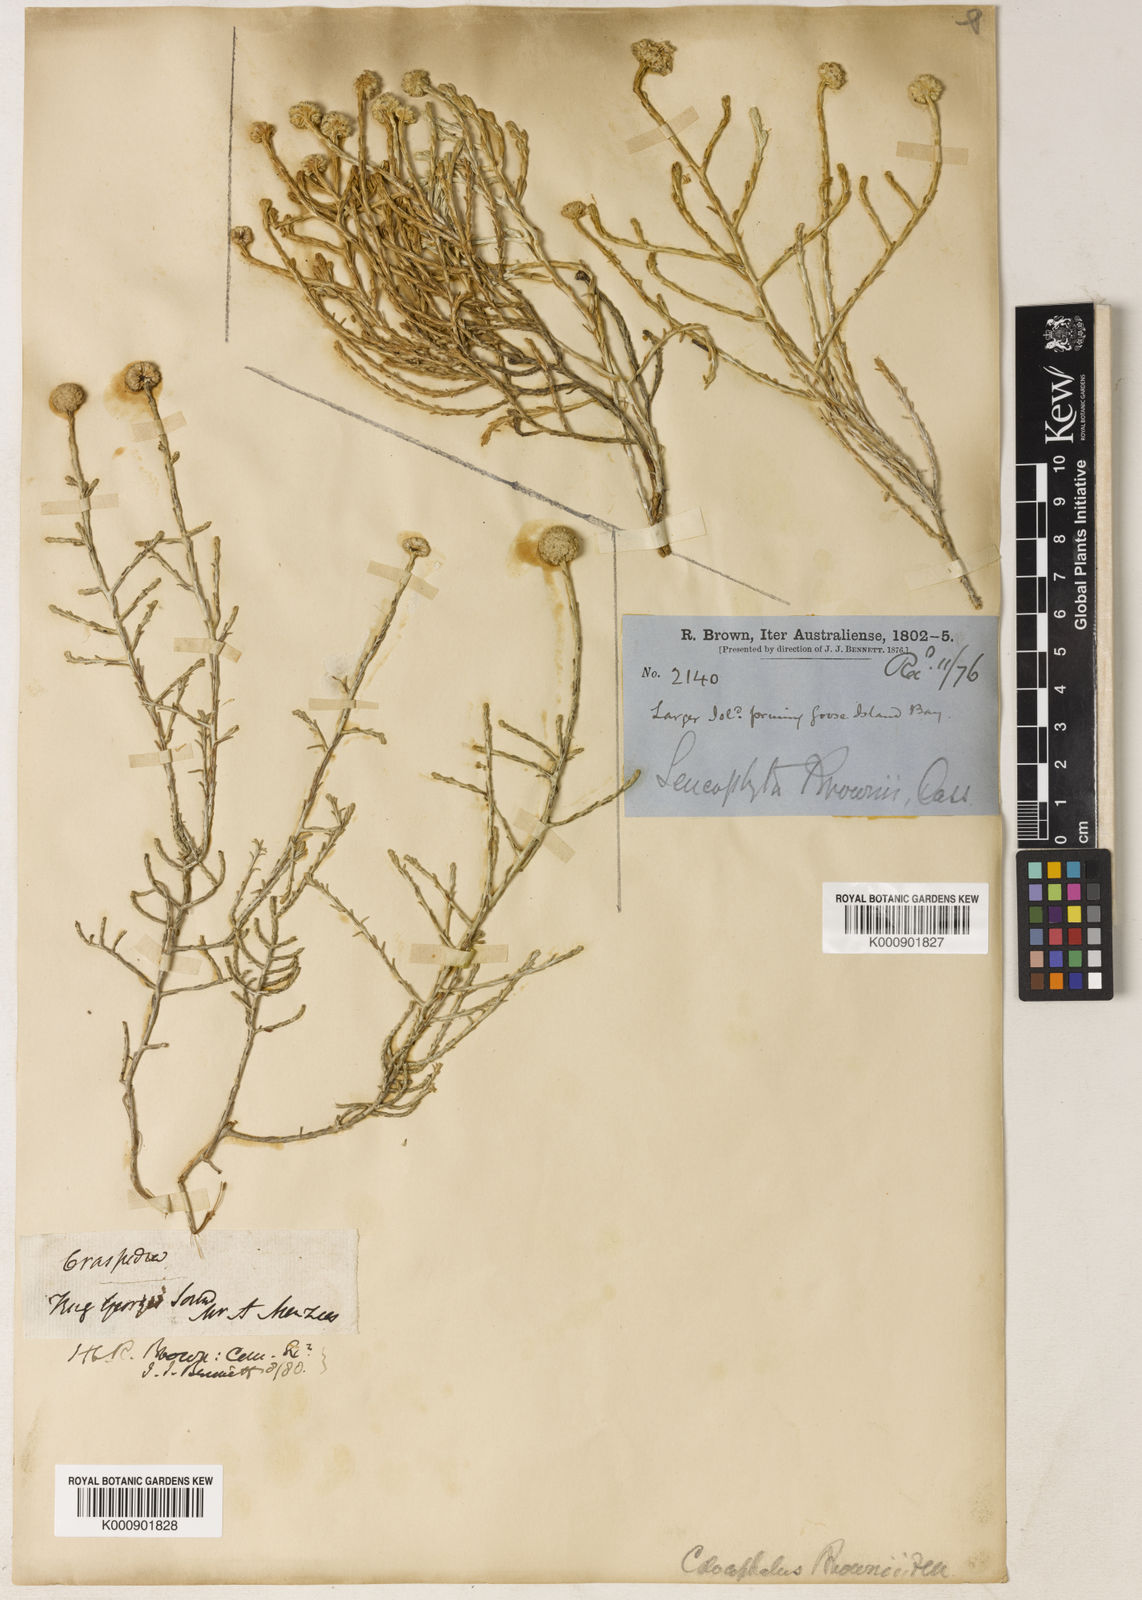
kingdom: Plantae
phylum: Tracheophyta
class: Magnoliopsida
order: Asterales
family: Asteraceae
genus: Calocephalus
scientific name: Calocephalus brownii
